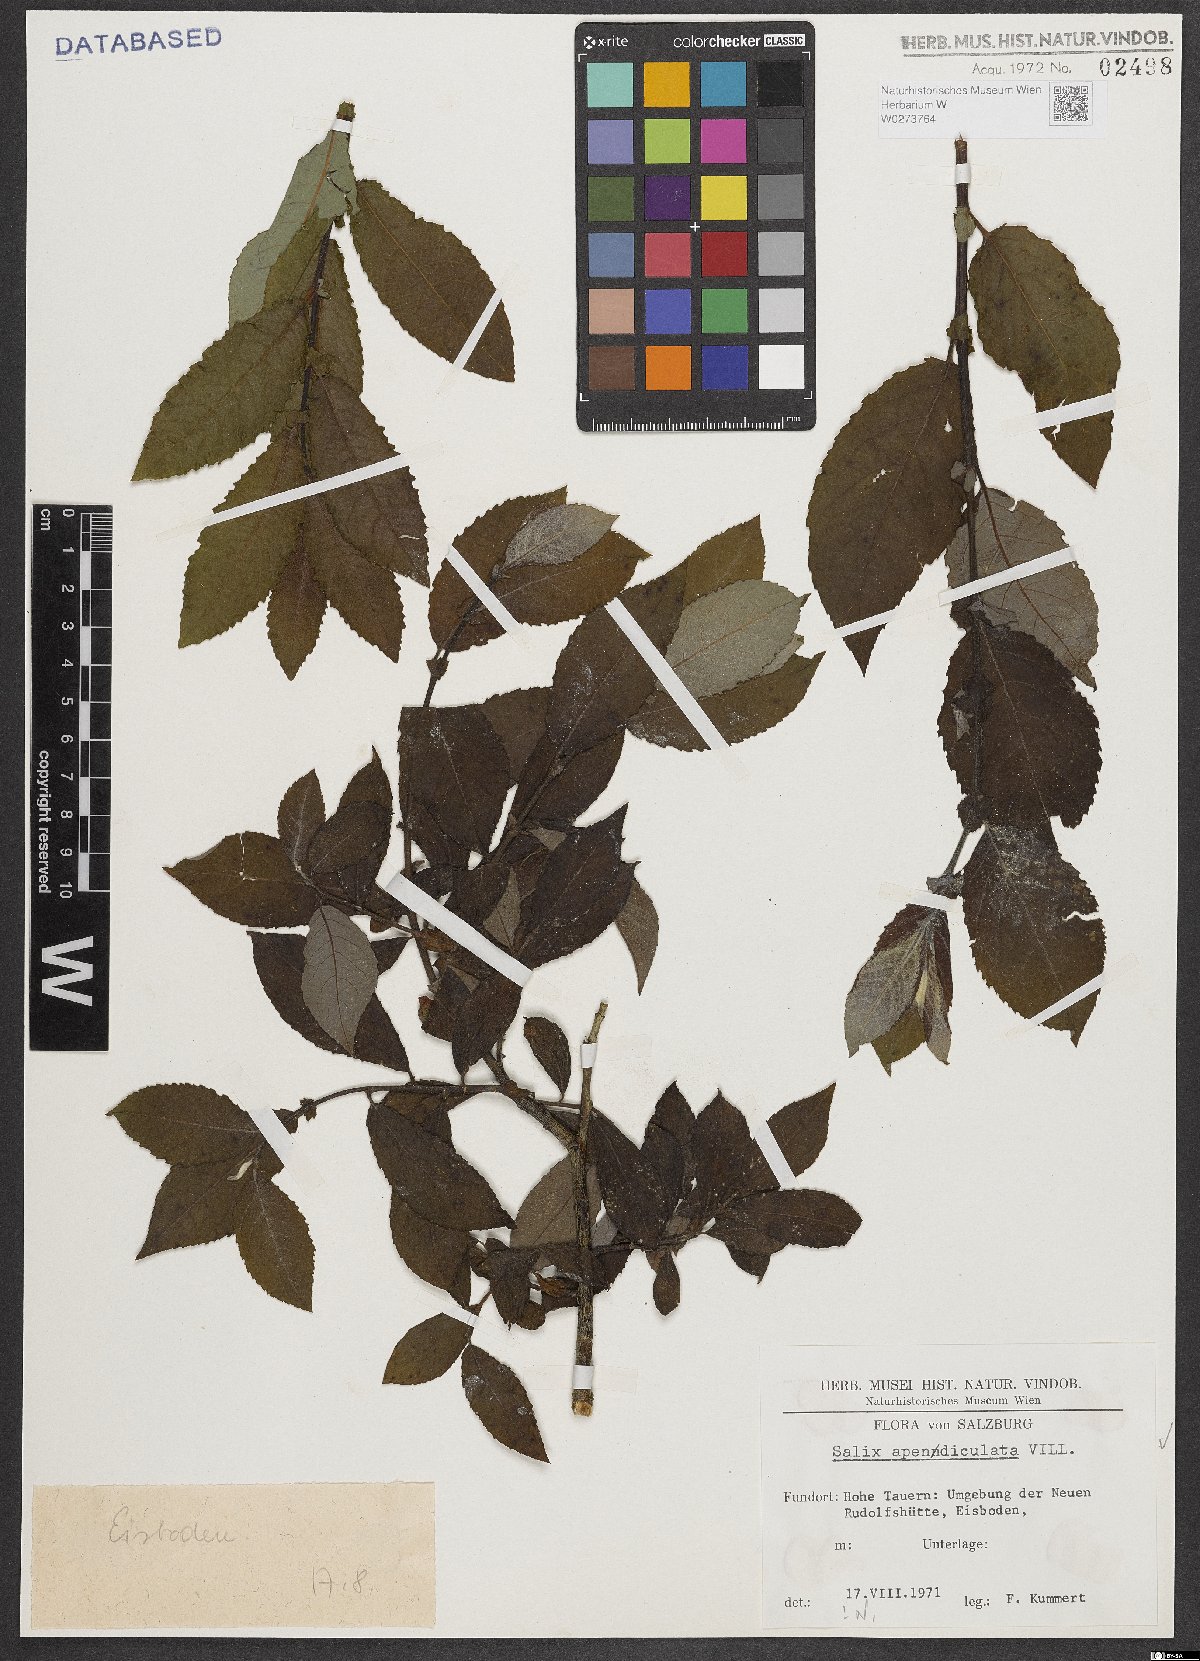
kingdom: Plantae
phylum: Tracheophyta
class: Magnoliopsida
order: Malpighiales
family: Salicaceae
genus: Salix
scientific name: Salix appendiculata
